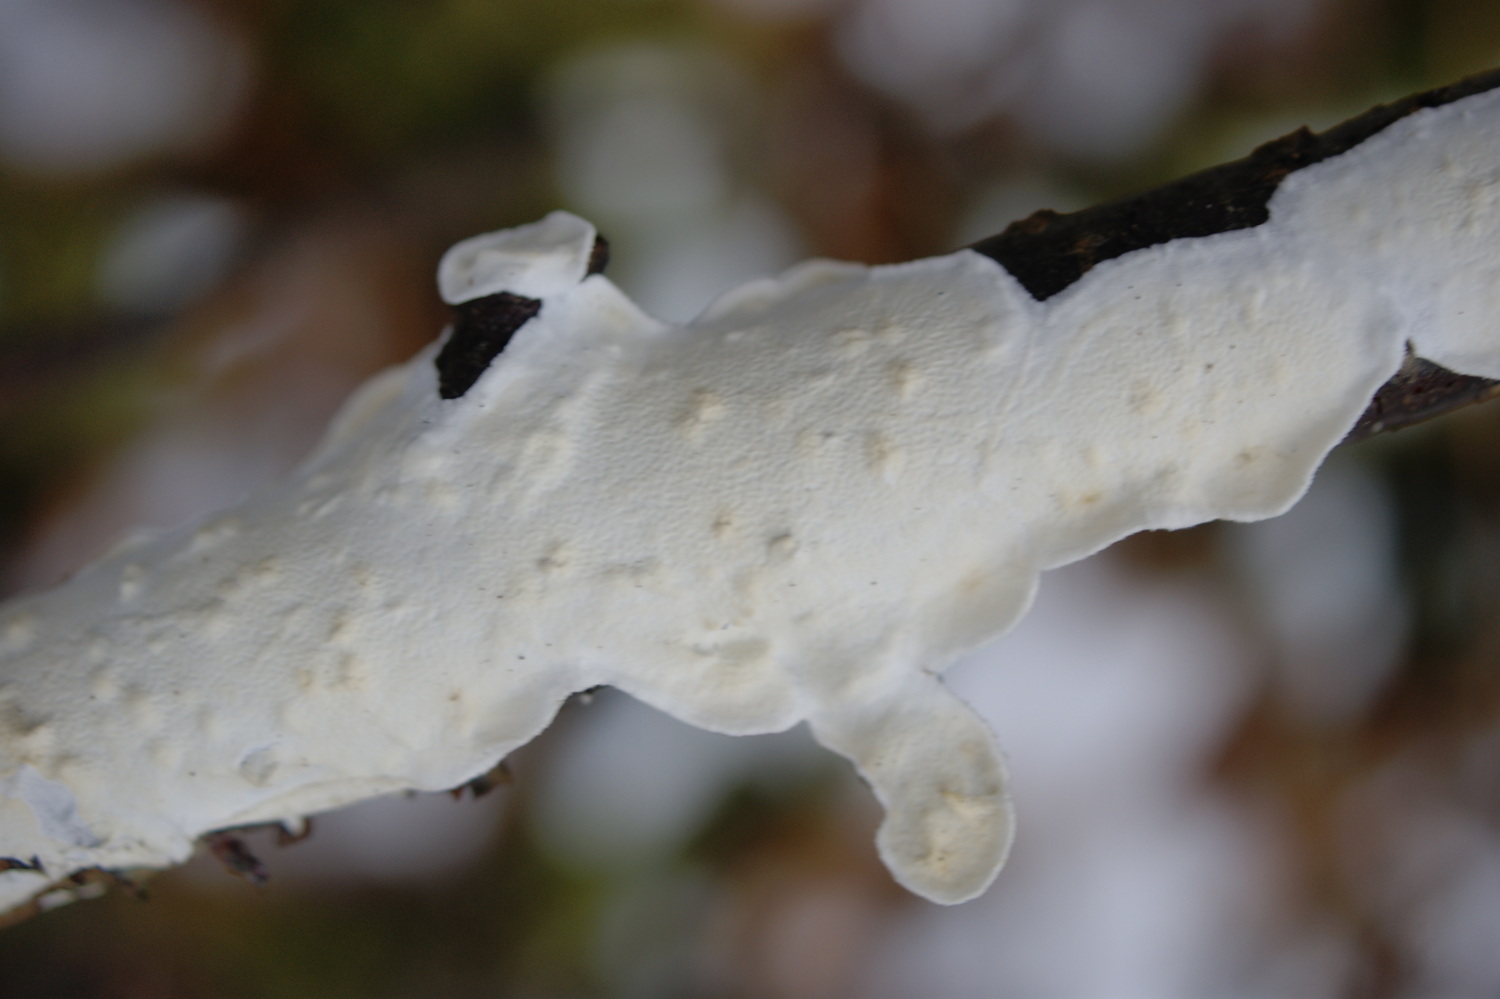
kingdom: Fungi
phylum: Basidiomycota
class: Agaricomycetes
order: Polyporales
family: Irpicaceae
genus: Byssomerulius
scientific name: Byssomerulius corium
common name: læder-åresvamp
